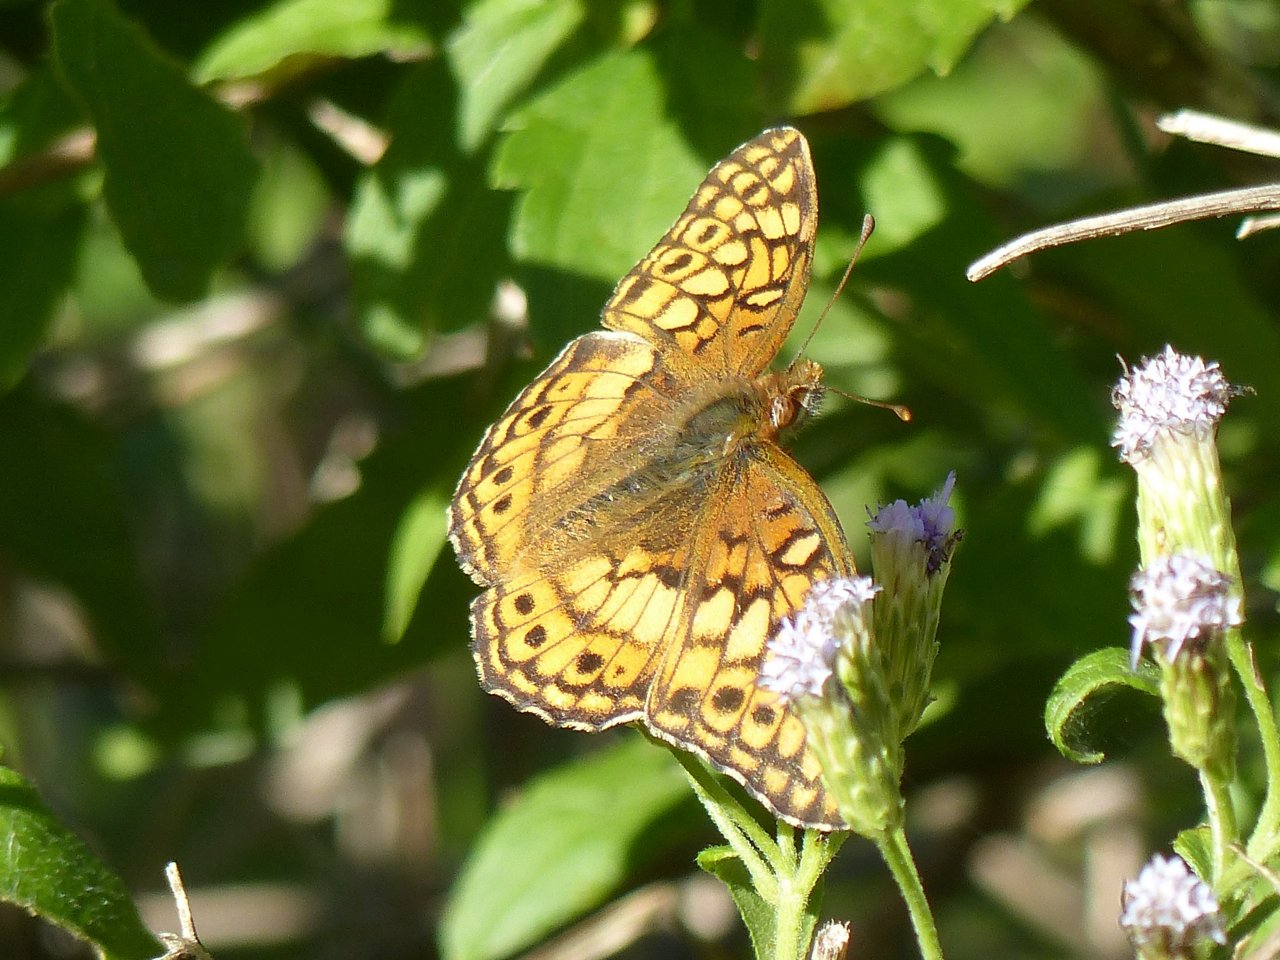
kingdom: Animalia
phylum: Arthropoda
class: Insecta
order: Lepidoptera
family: Nymphalidae
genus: Euptoieta
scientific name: Euptoieta claudia
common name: Variegated Fritillary
